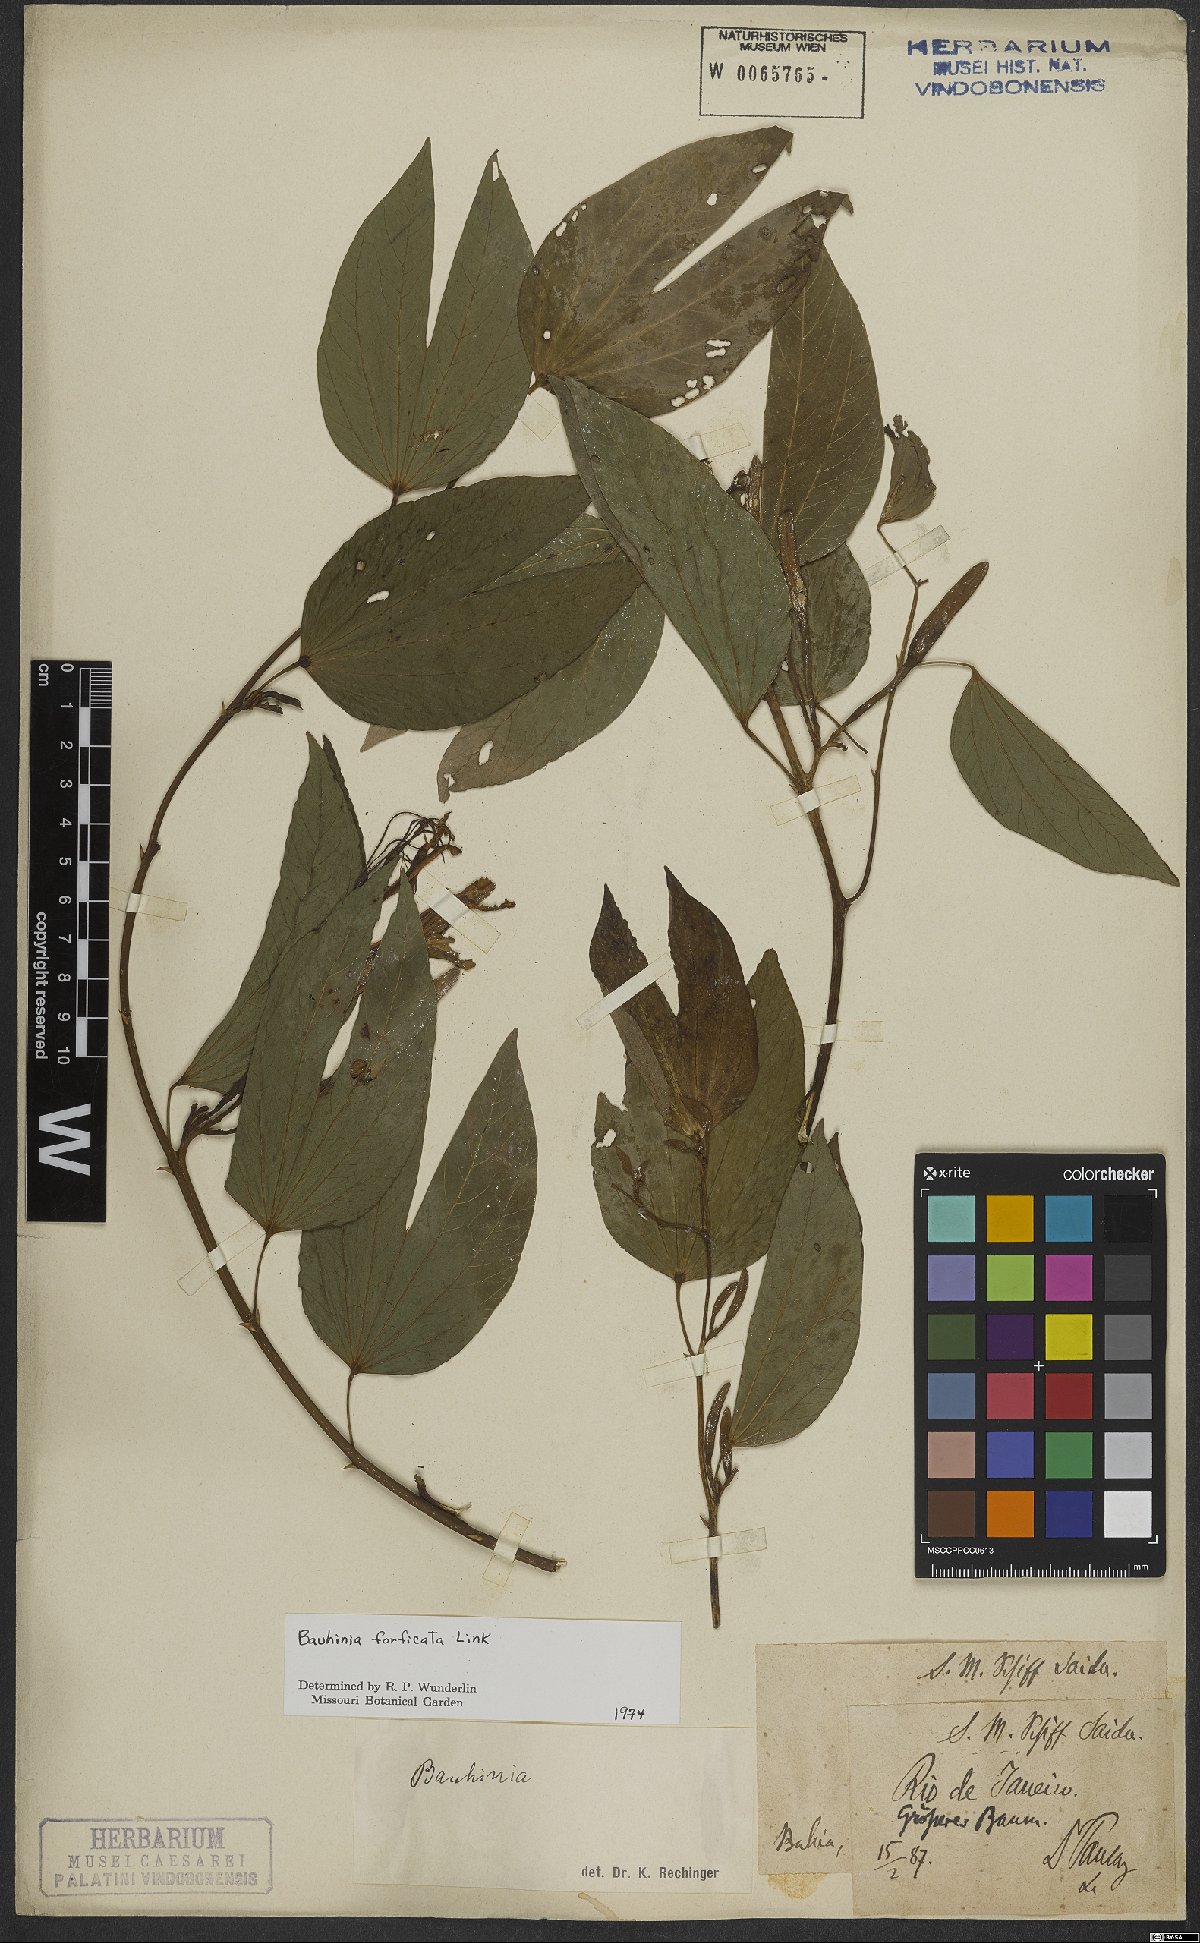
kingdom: Plantae
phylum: Tracheophyta
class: Magnoliopsida
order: Fabales
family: Fabaceae
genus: Bauhinia
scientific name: Bauhinia forficata
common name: Orchid tree
